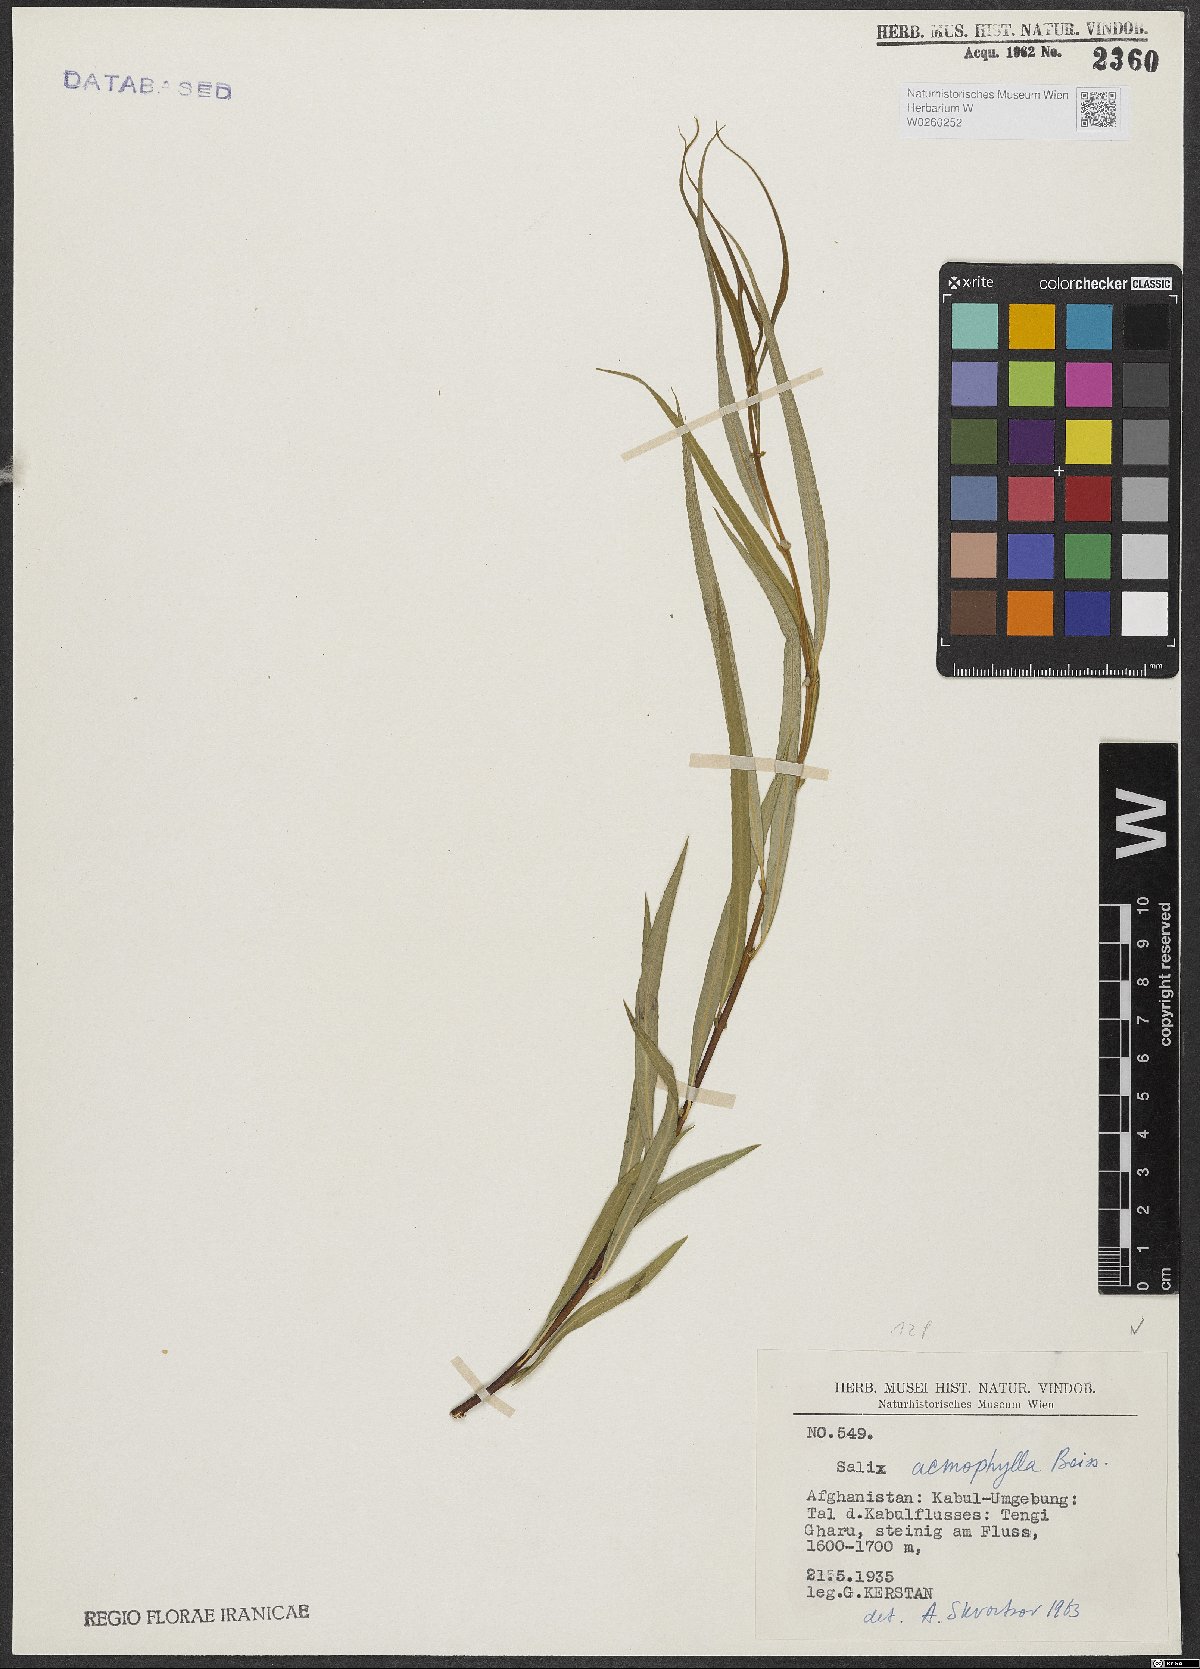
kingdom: Plantae
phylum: Tracheophyta
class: Magnoliopsida
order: Malpighiales
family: Salicaceae
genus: Salix
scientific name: Salix acmophylla
